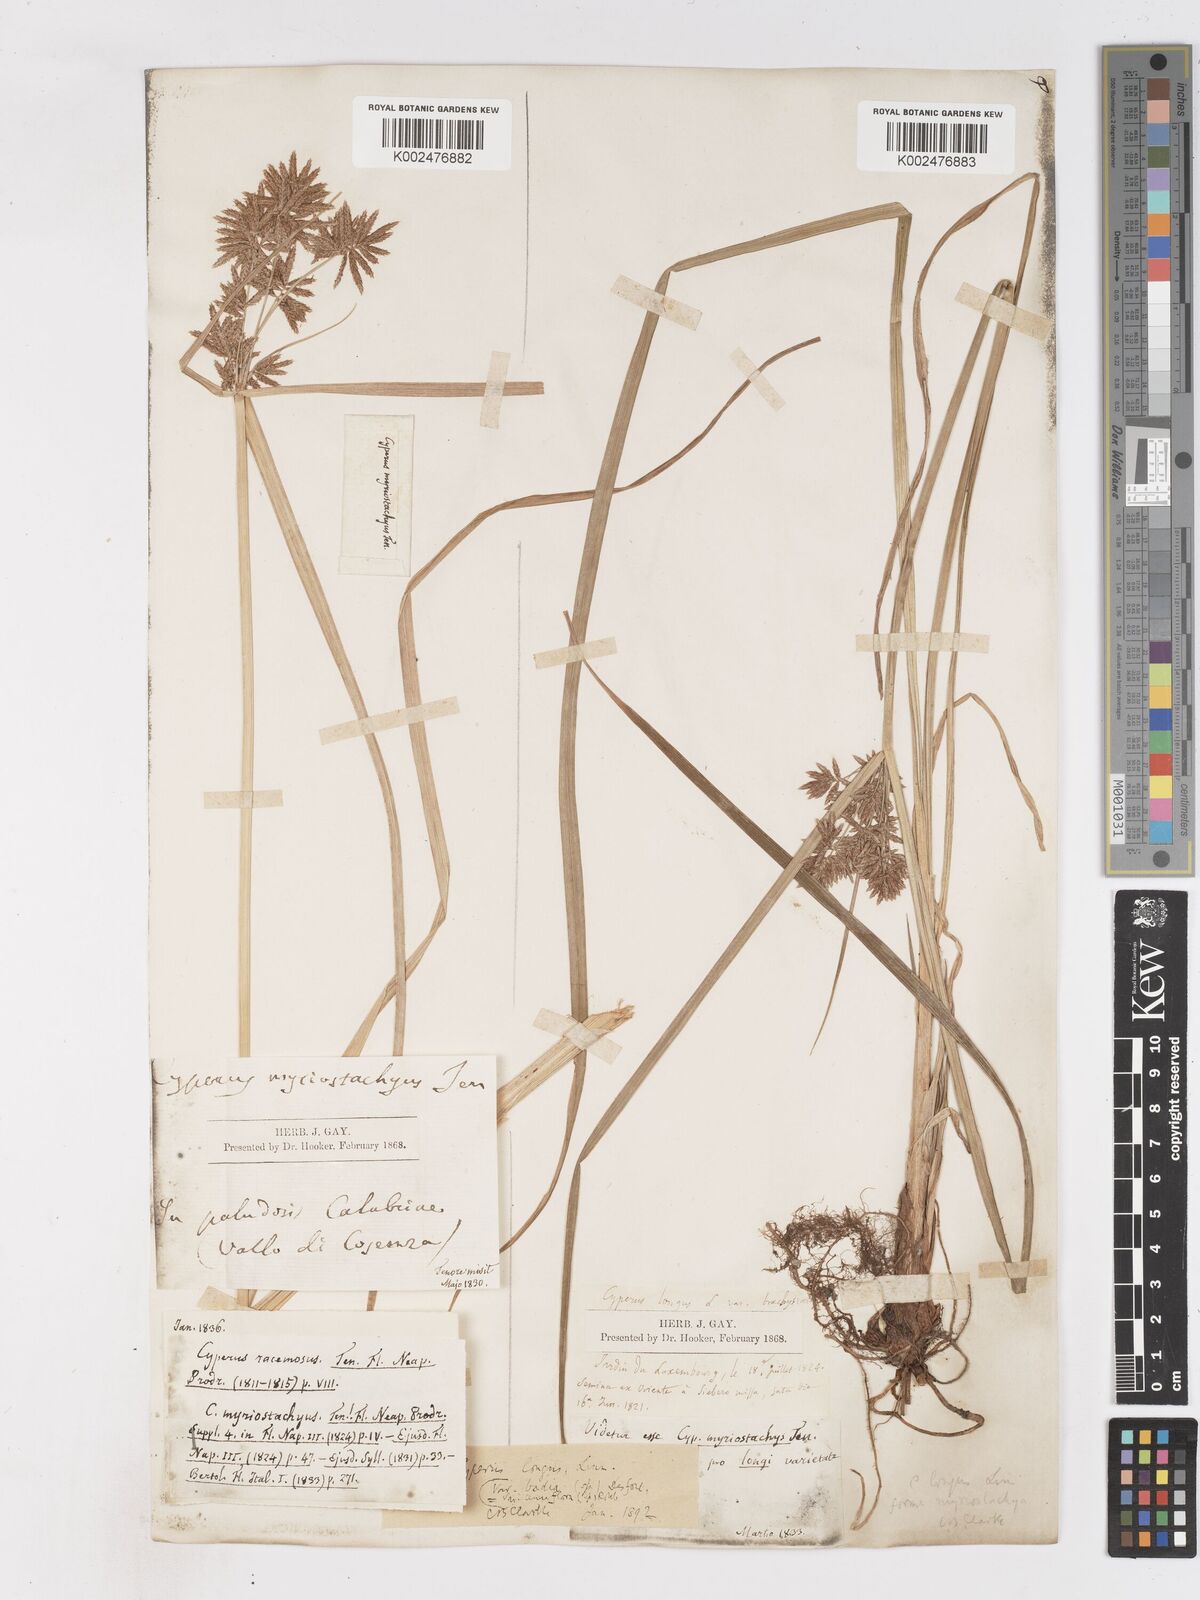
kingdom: Plantae
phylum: Tracheophyta
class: Liliopsida
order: Poales
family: Cyperaceae
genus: Cyperus
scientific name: Cyperus longus
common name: Galingale
